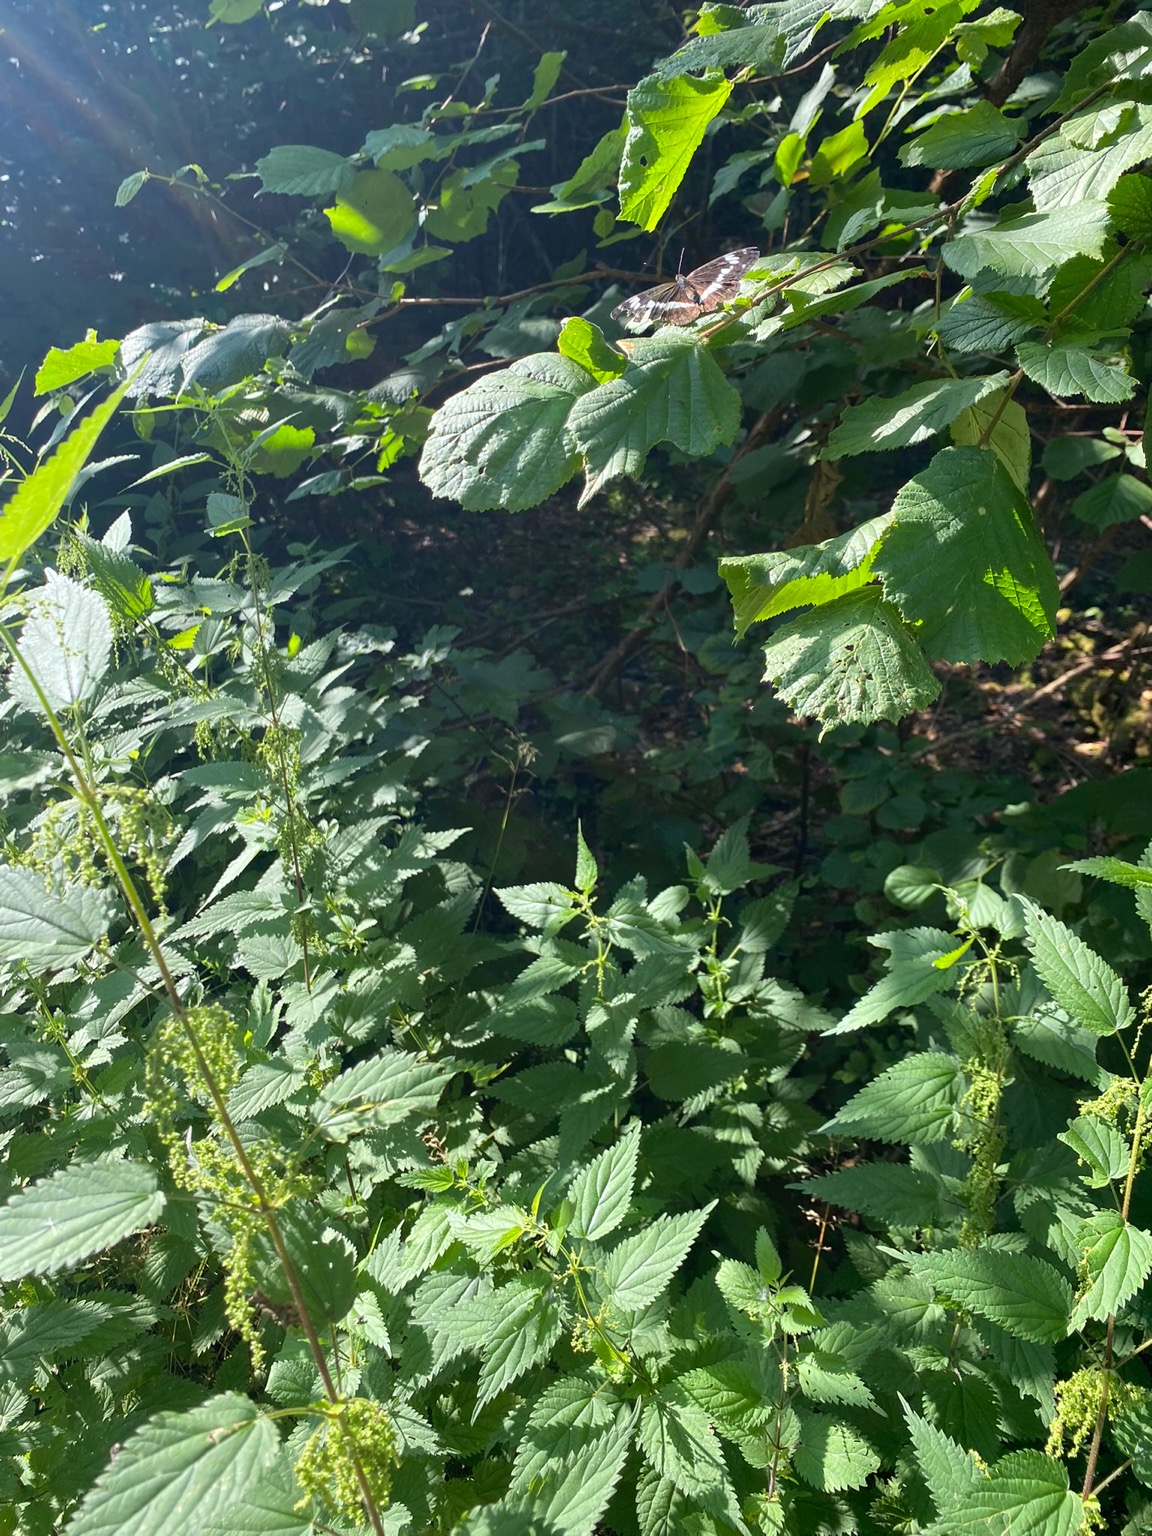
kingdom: Animalia
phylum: Arthropoda
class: Insecta
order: Lepidoptera
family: Nymphalidae
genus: Ladoga
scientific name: Ladoga camilla
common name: Hvid admiral
